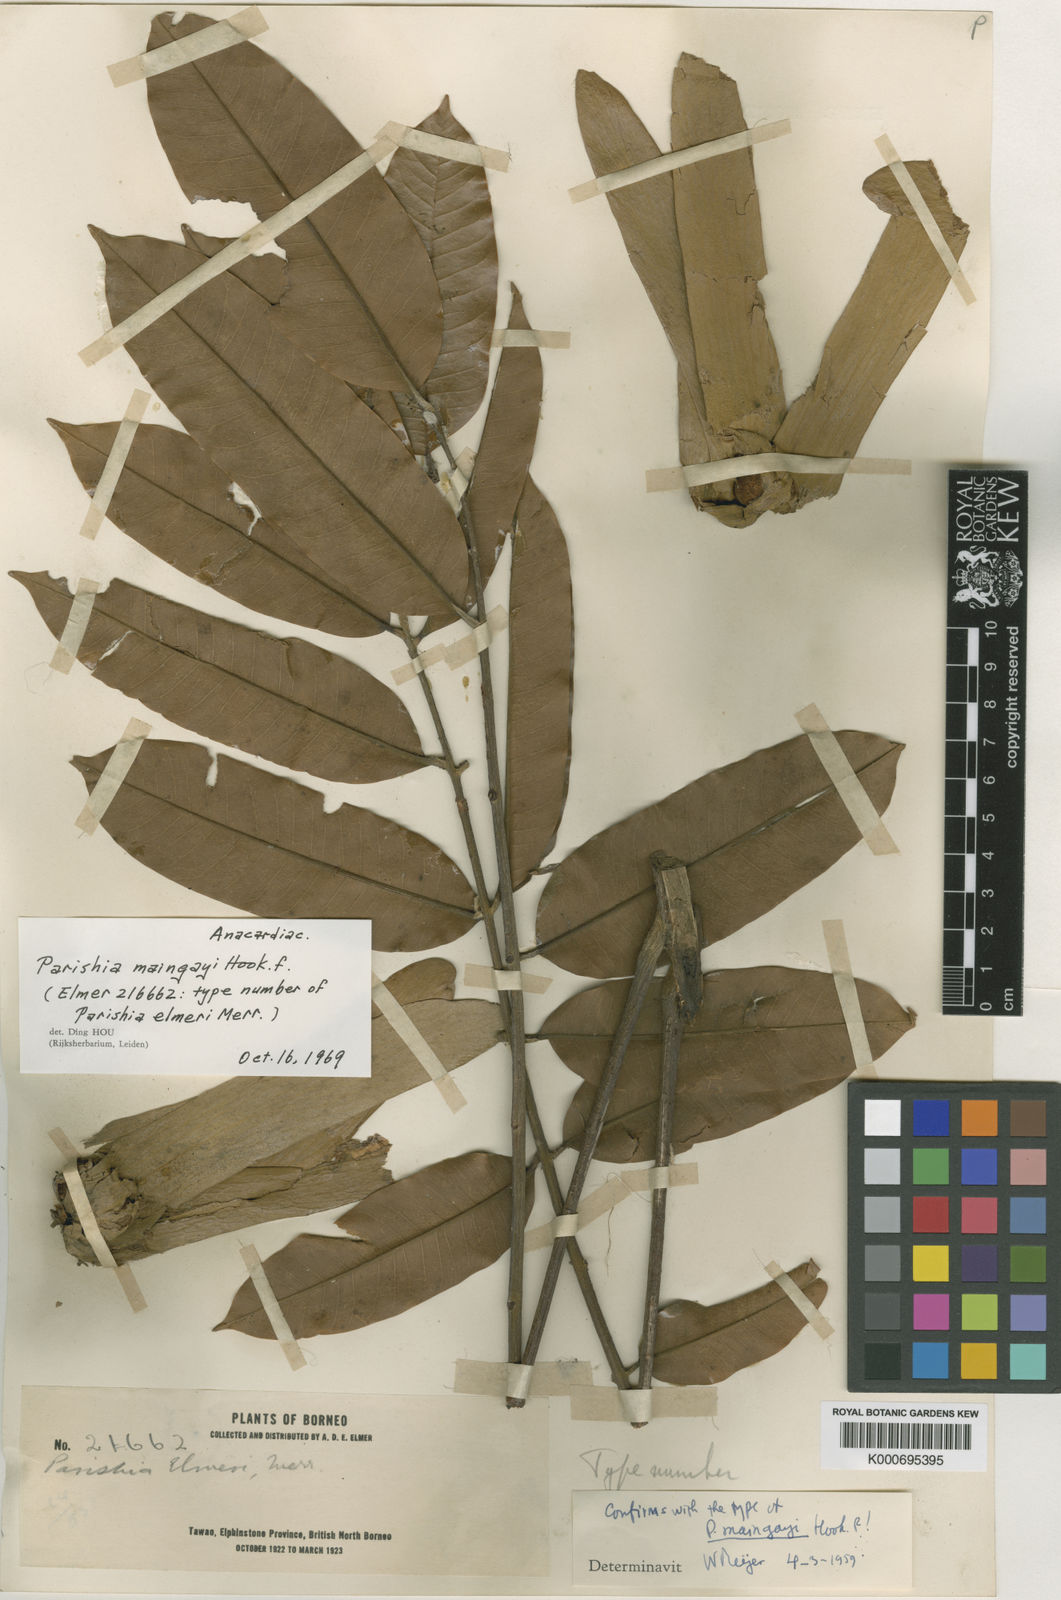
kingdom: Plantae
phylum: Tracheophyta
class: Magnoliopsida
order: Sapindales
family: Anacardiaceae
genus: Parishia
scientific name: Parishia maingayi
